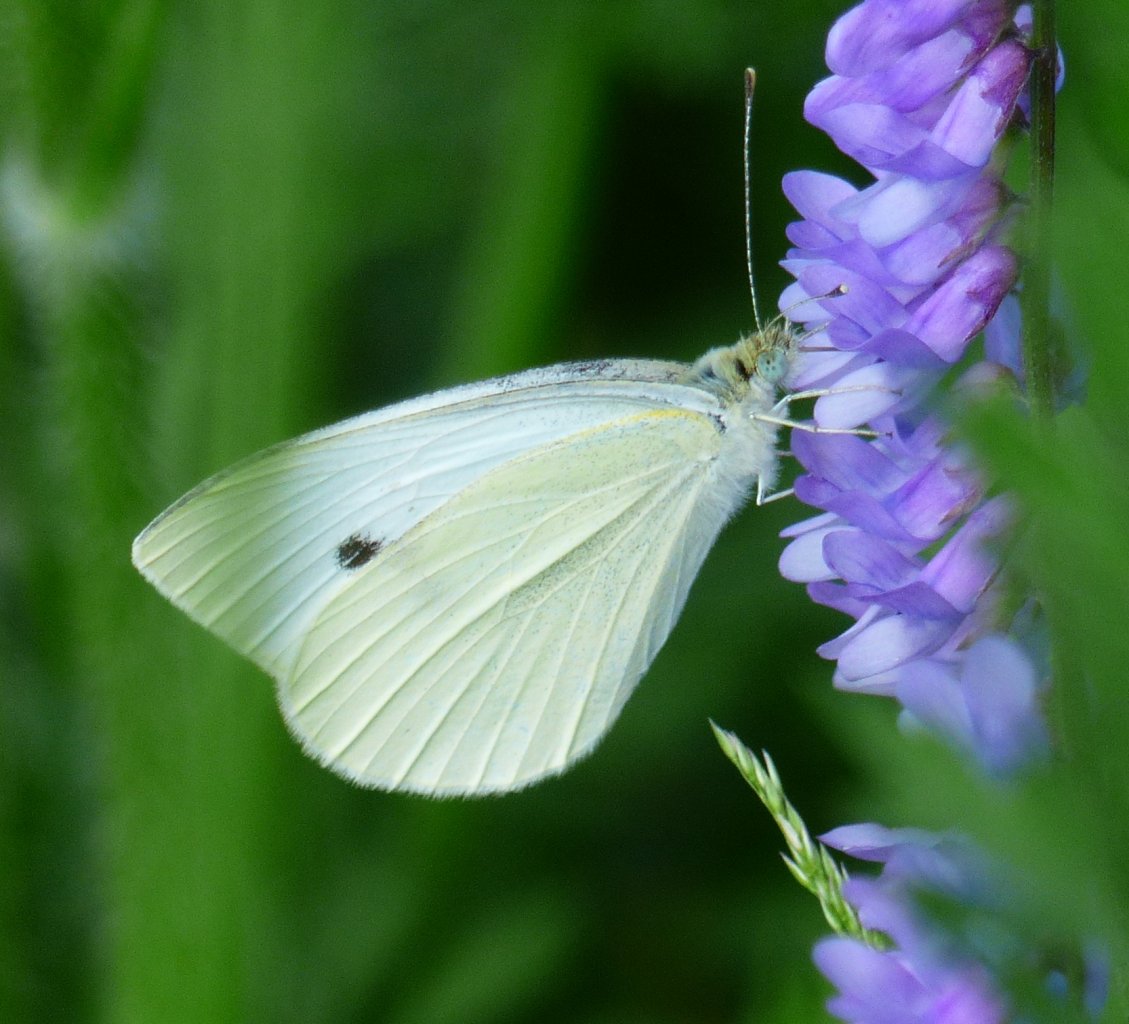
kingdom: Animalia
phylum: Arthropoda
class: Insecta
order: Lepidoptera
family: Pieridae
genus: Pieris
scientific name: Pieris rapae
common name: Cabbage White
